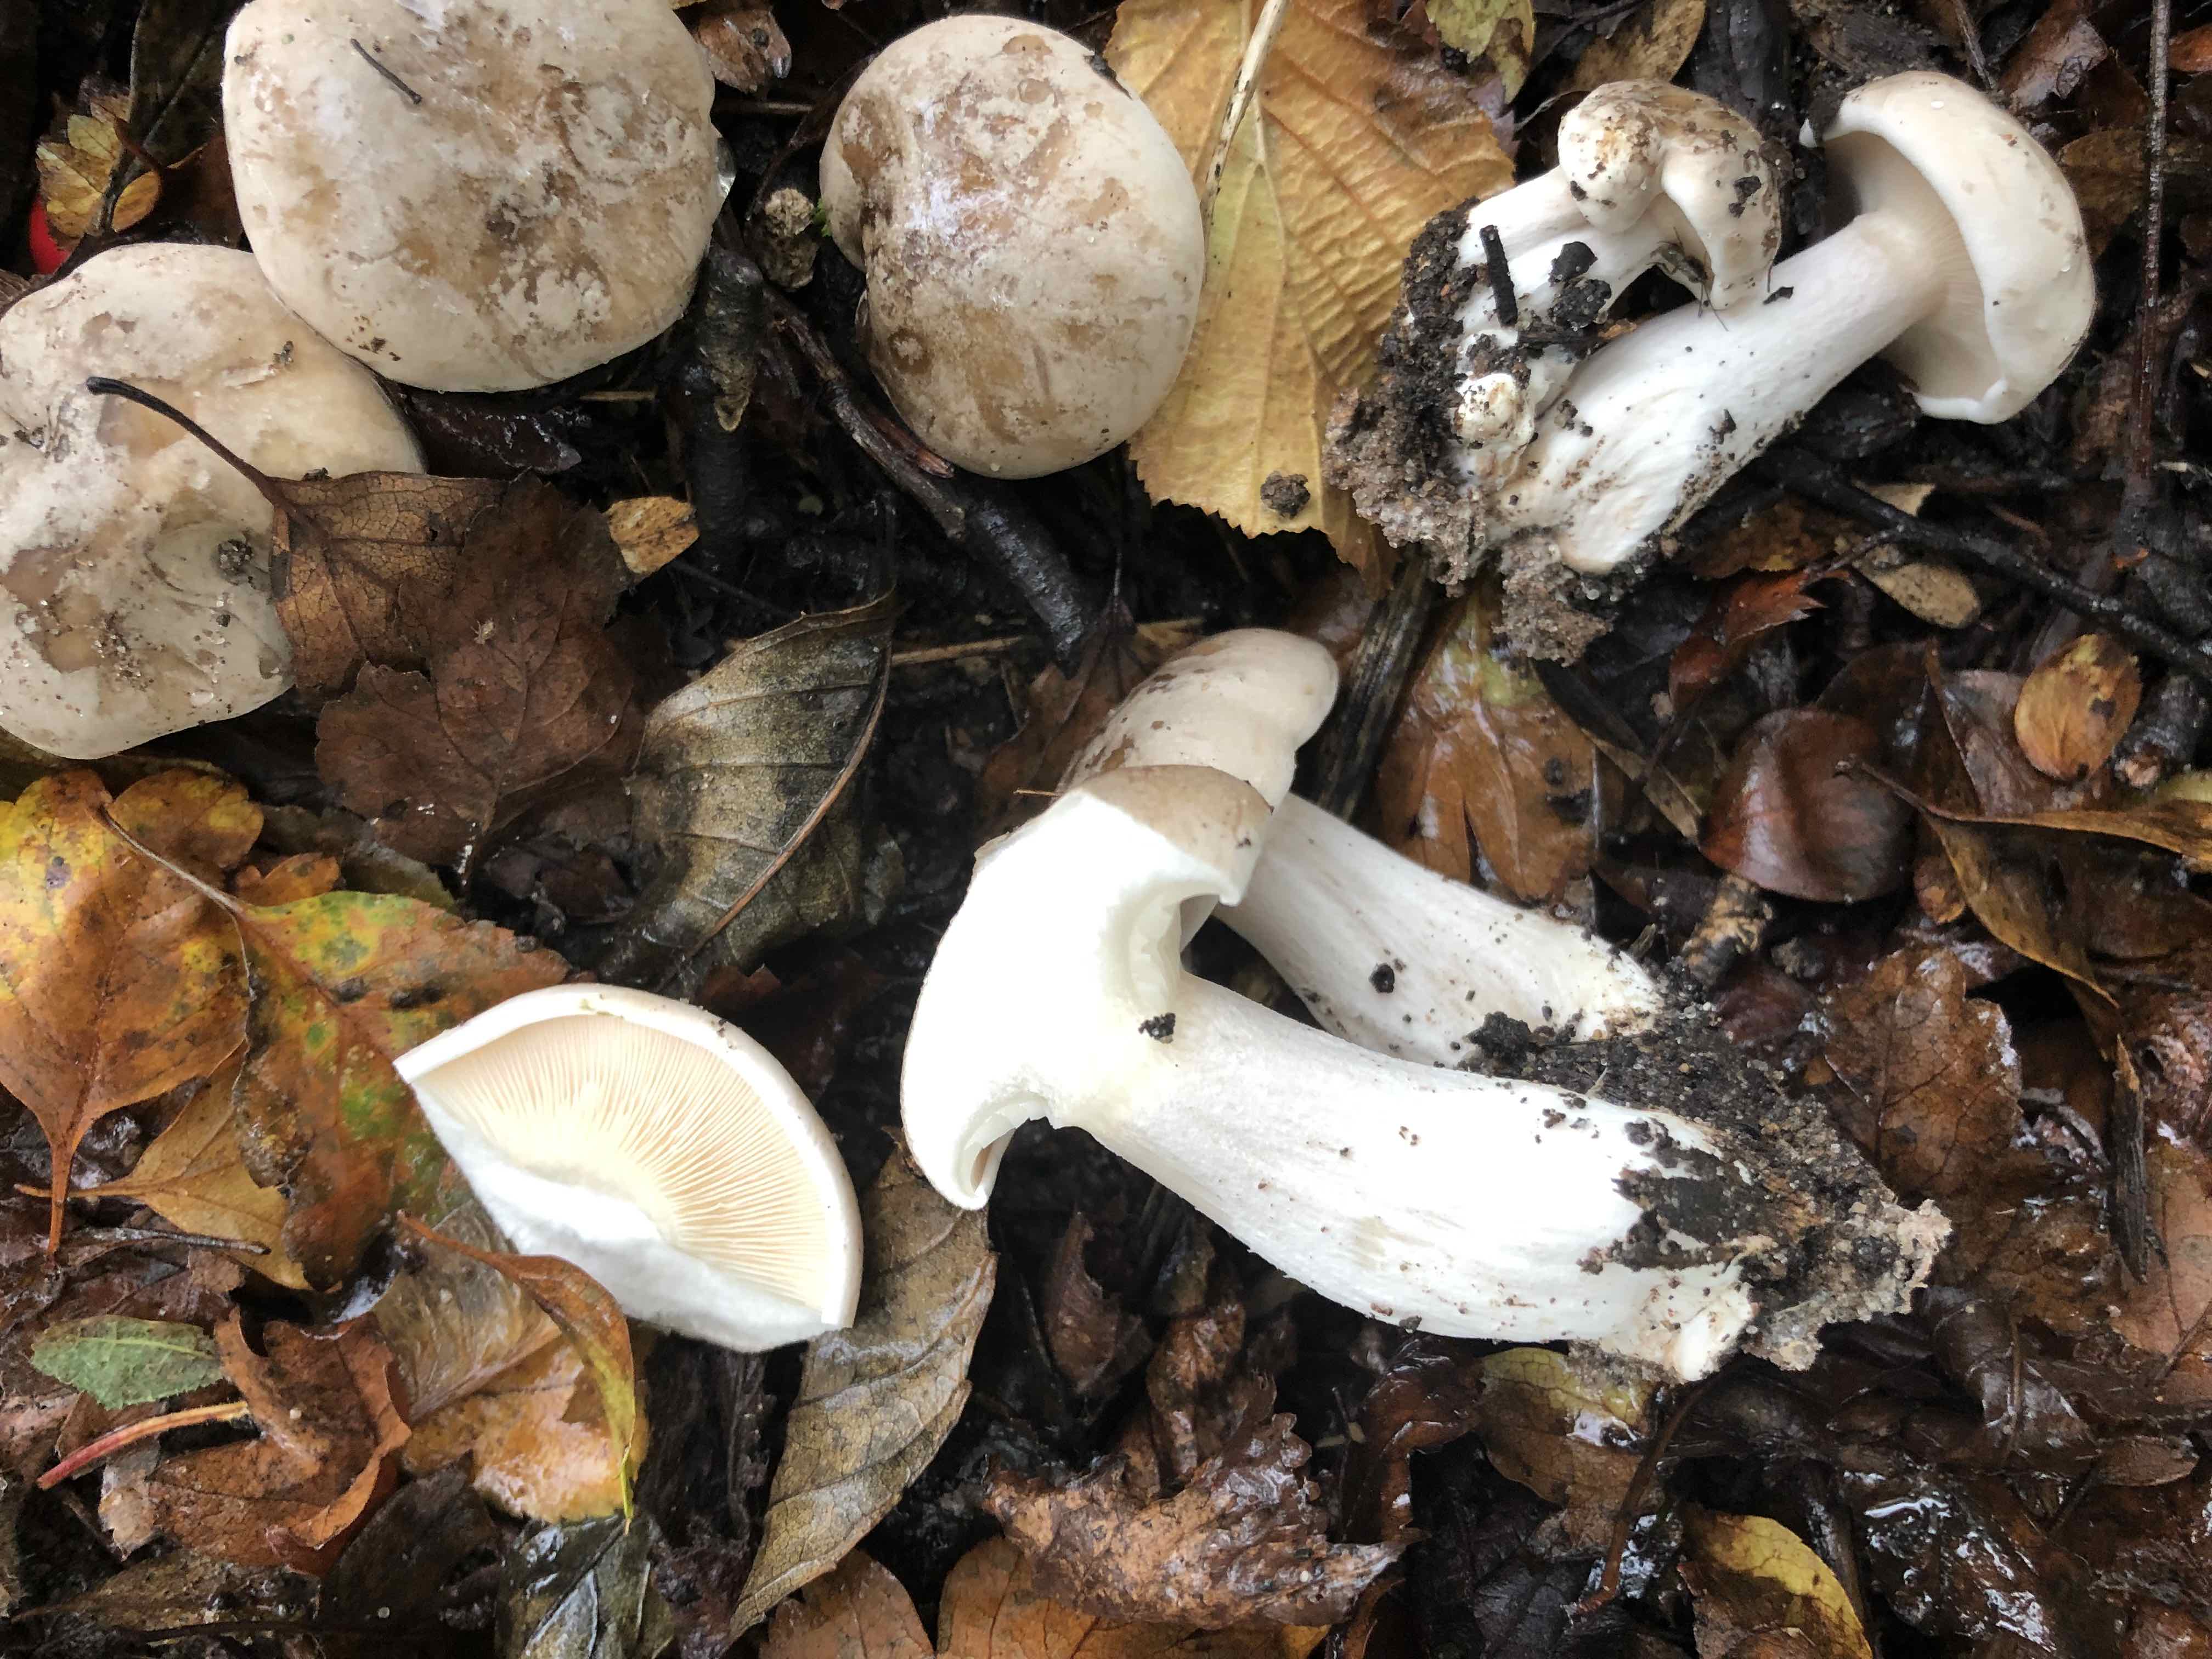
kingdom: Fungi
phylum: Basidiomycota
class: Agaricomycetes
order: Agaricales
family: Tricholomataceae
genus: Clitocybe
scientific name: Clitocybe nebularis
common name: tåge-tragthat
